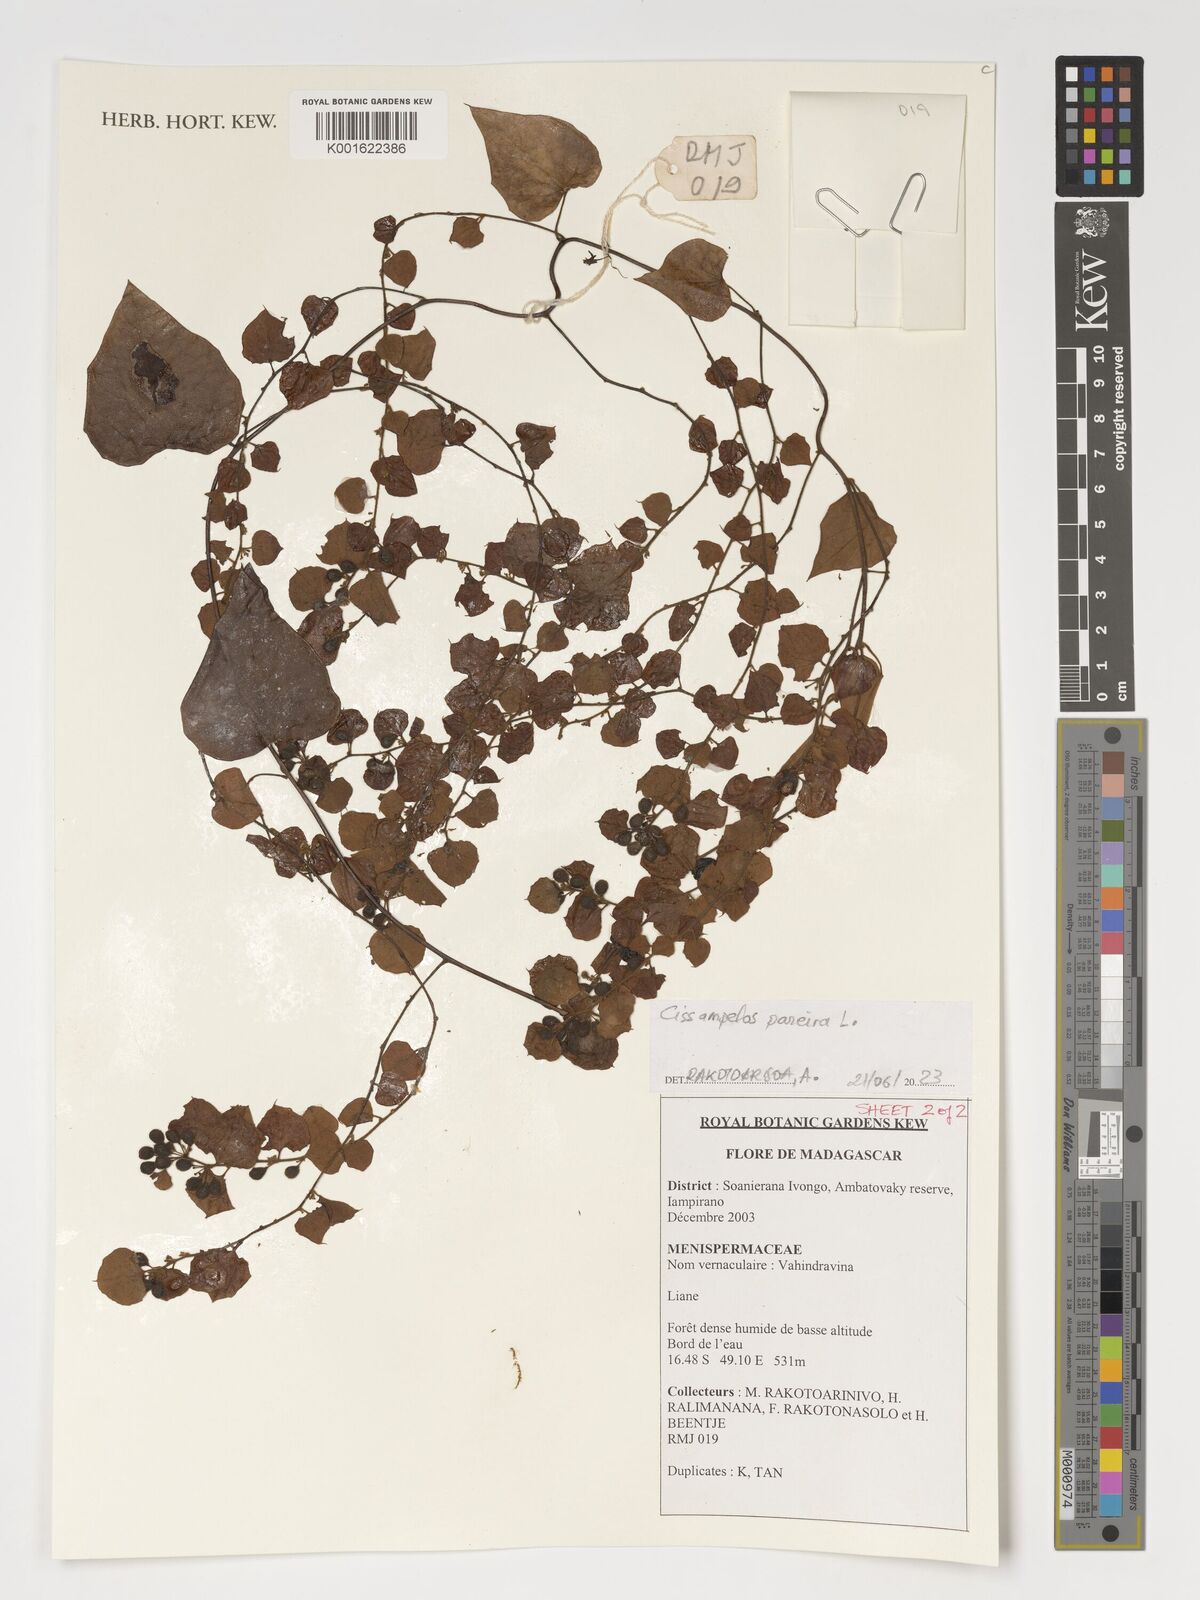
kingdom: Plantae
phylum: Tracheophyta
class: Magnoliopsida
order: Ranunculales
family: Menispermaceae
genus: Cissampelos
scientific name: Cissampelos pareira
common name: Velvetleaf
